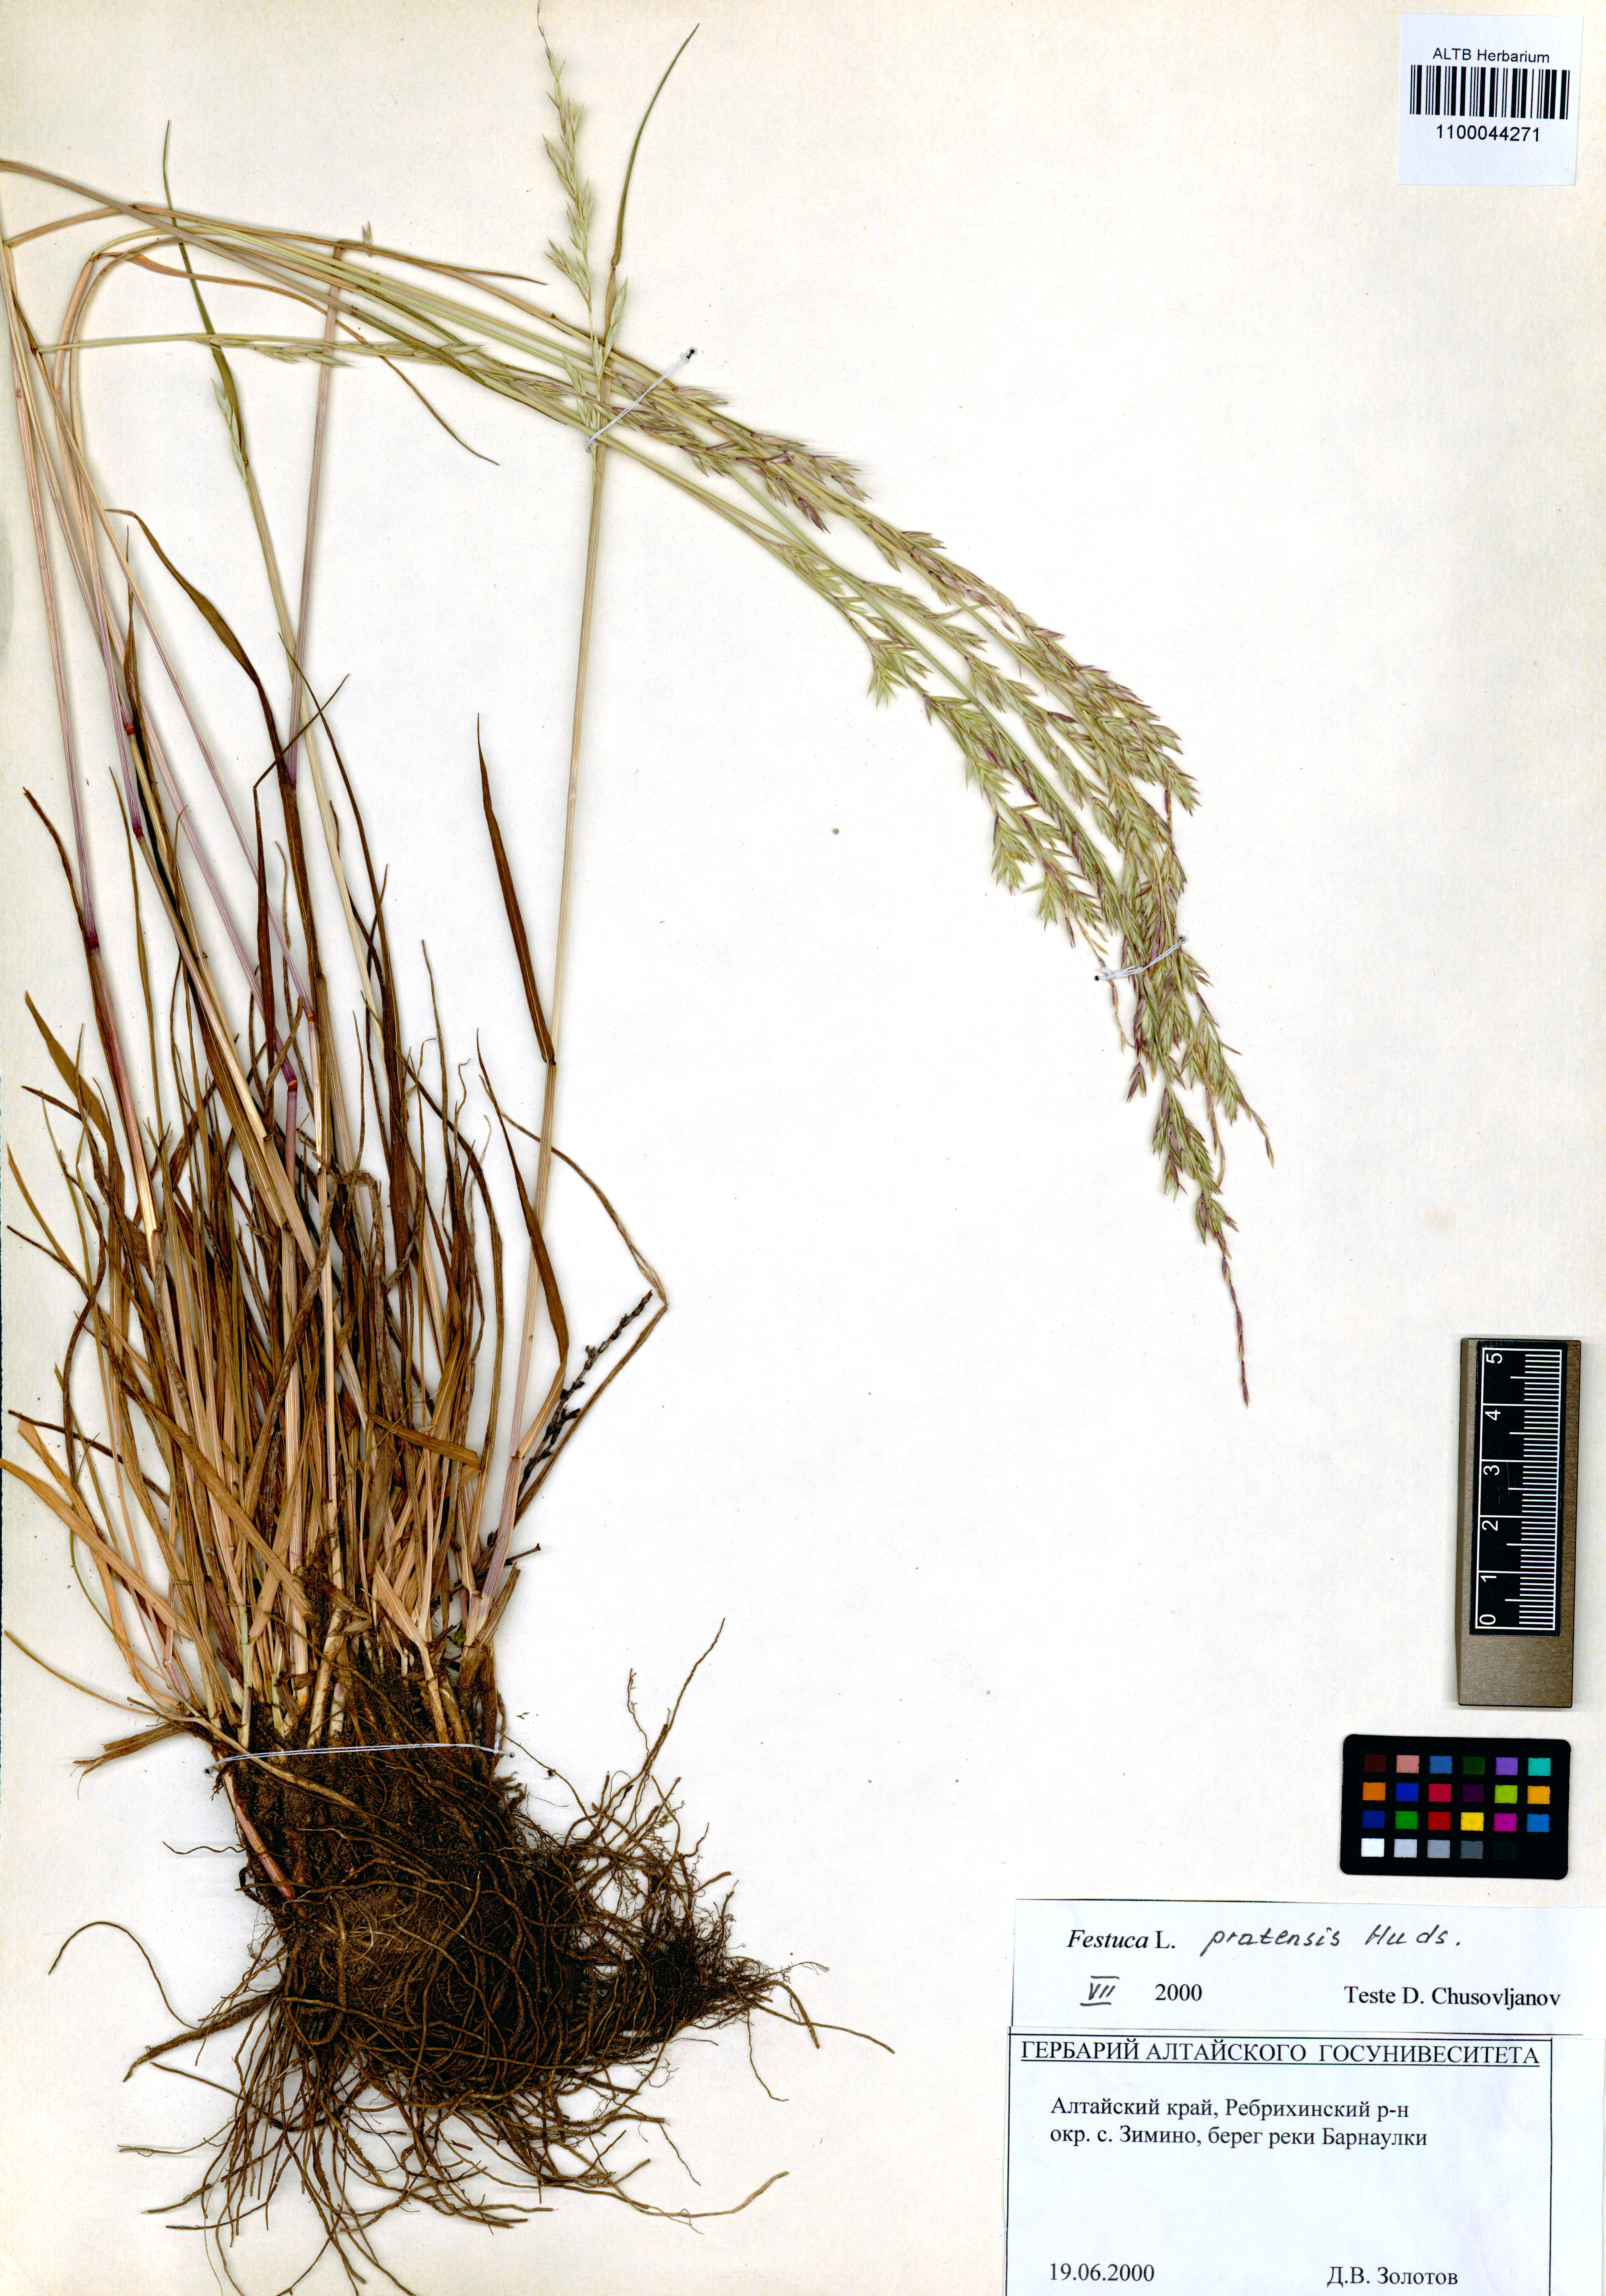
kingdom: Plantae
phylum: Tracheophyta
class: Liliopsida
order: Poales
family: Poaceae
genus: Lolium
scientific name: Lolium pratense
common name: Dover grass
